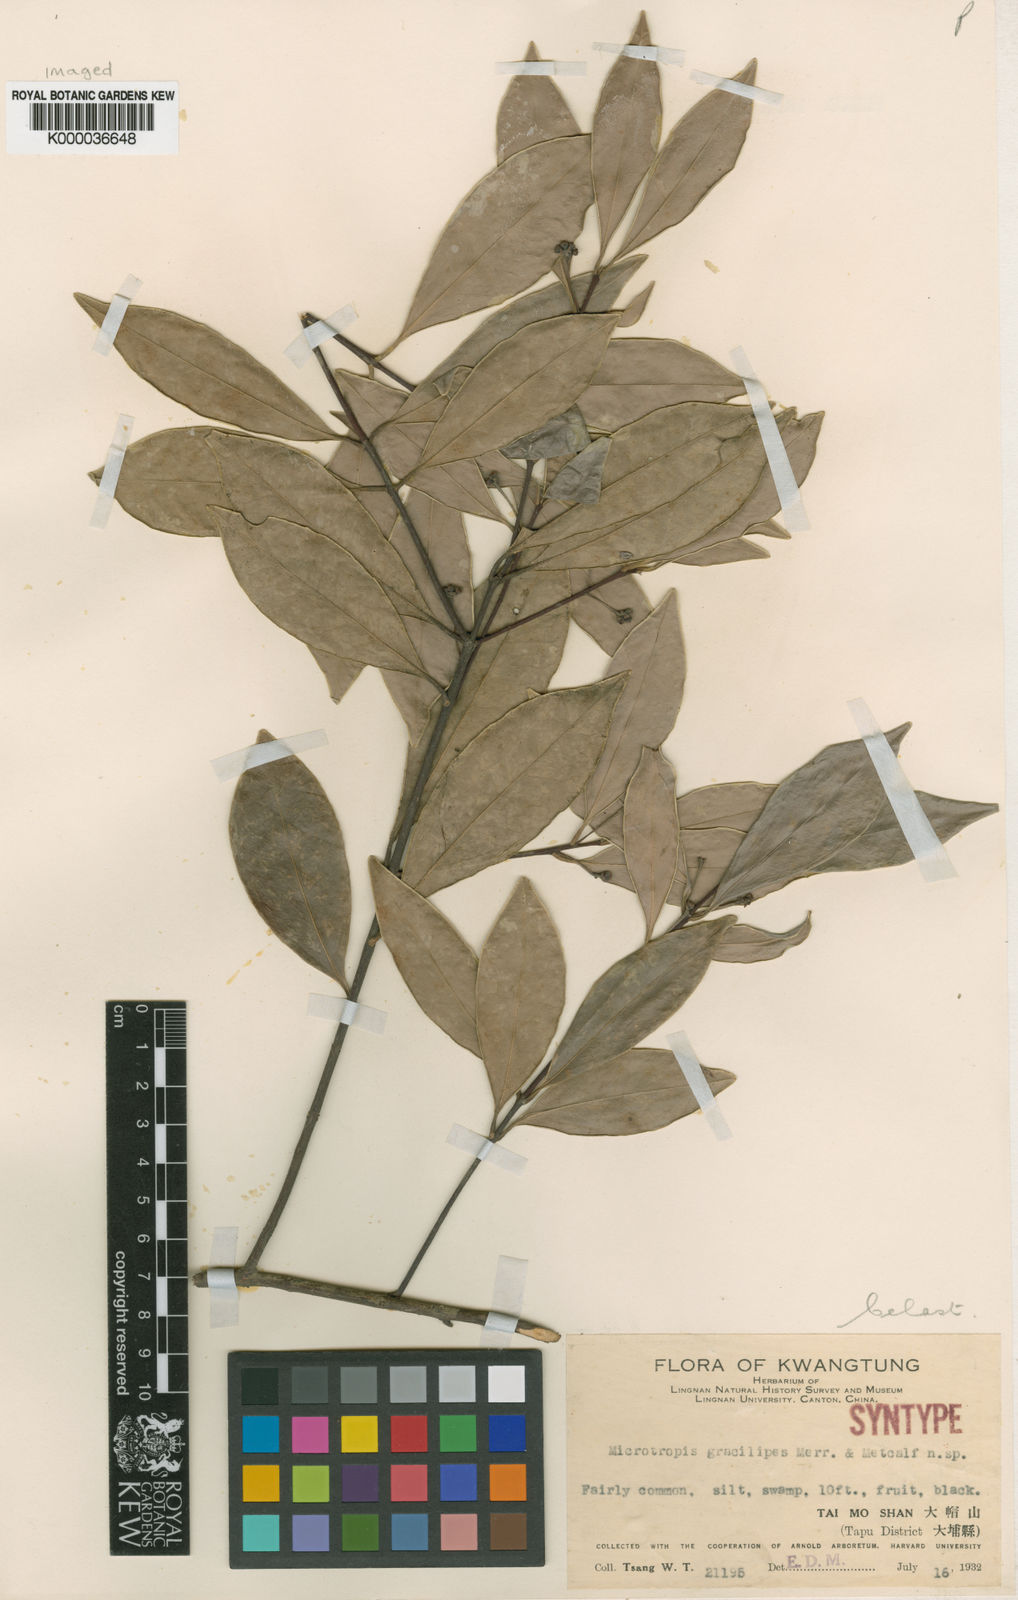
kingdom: Plantae
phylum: Tracheophyta
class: Magnoliopsida
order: Celastrales
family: Celastraceae
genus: Microtropis
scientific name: Microtropis gracilipes
